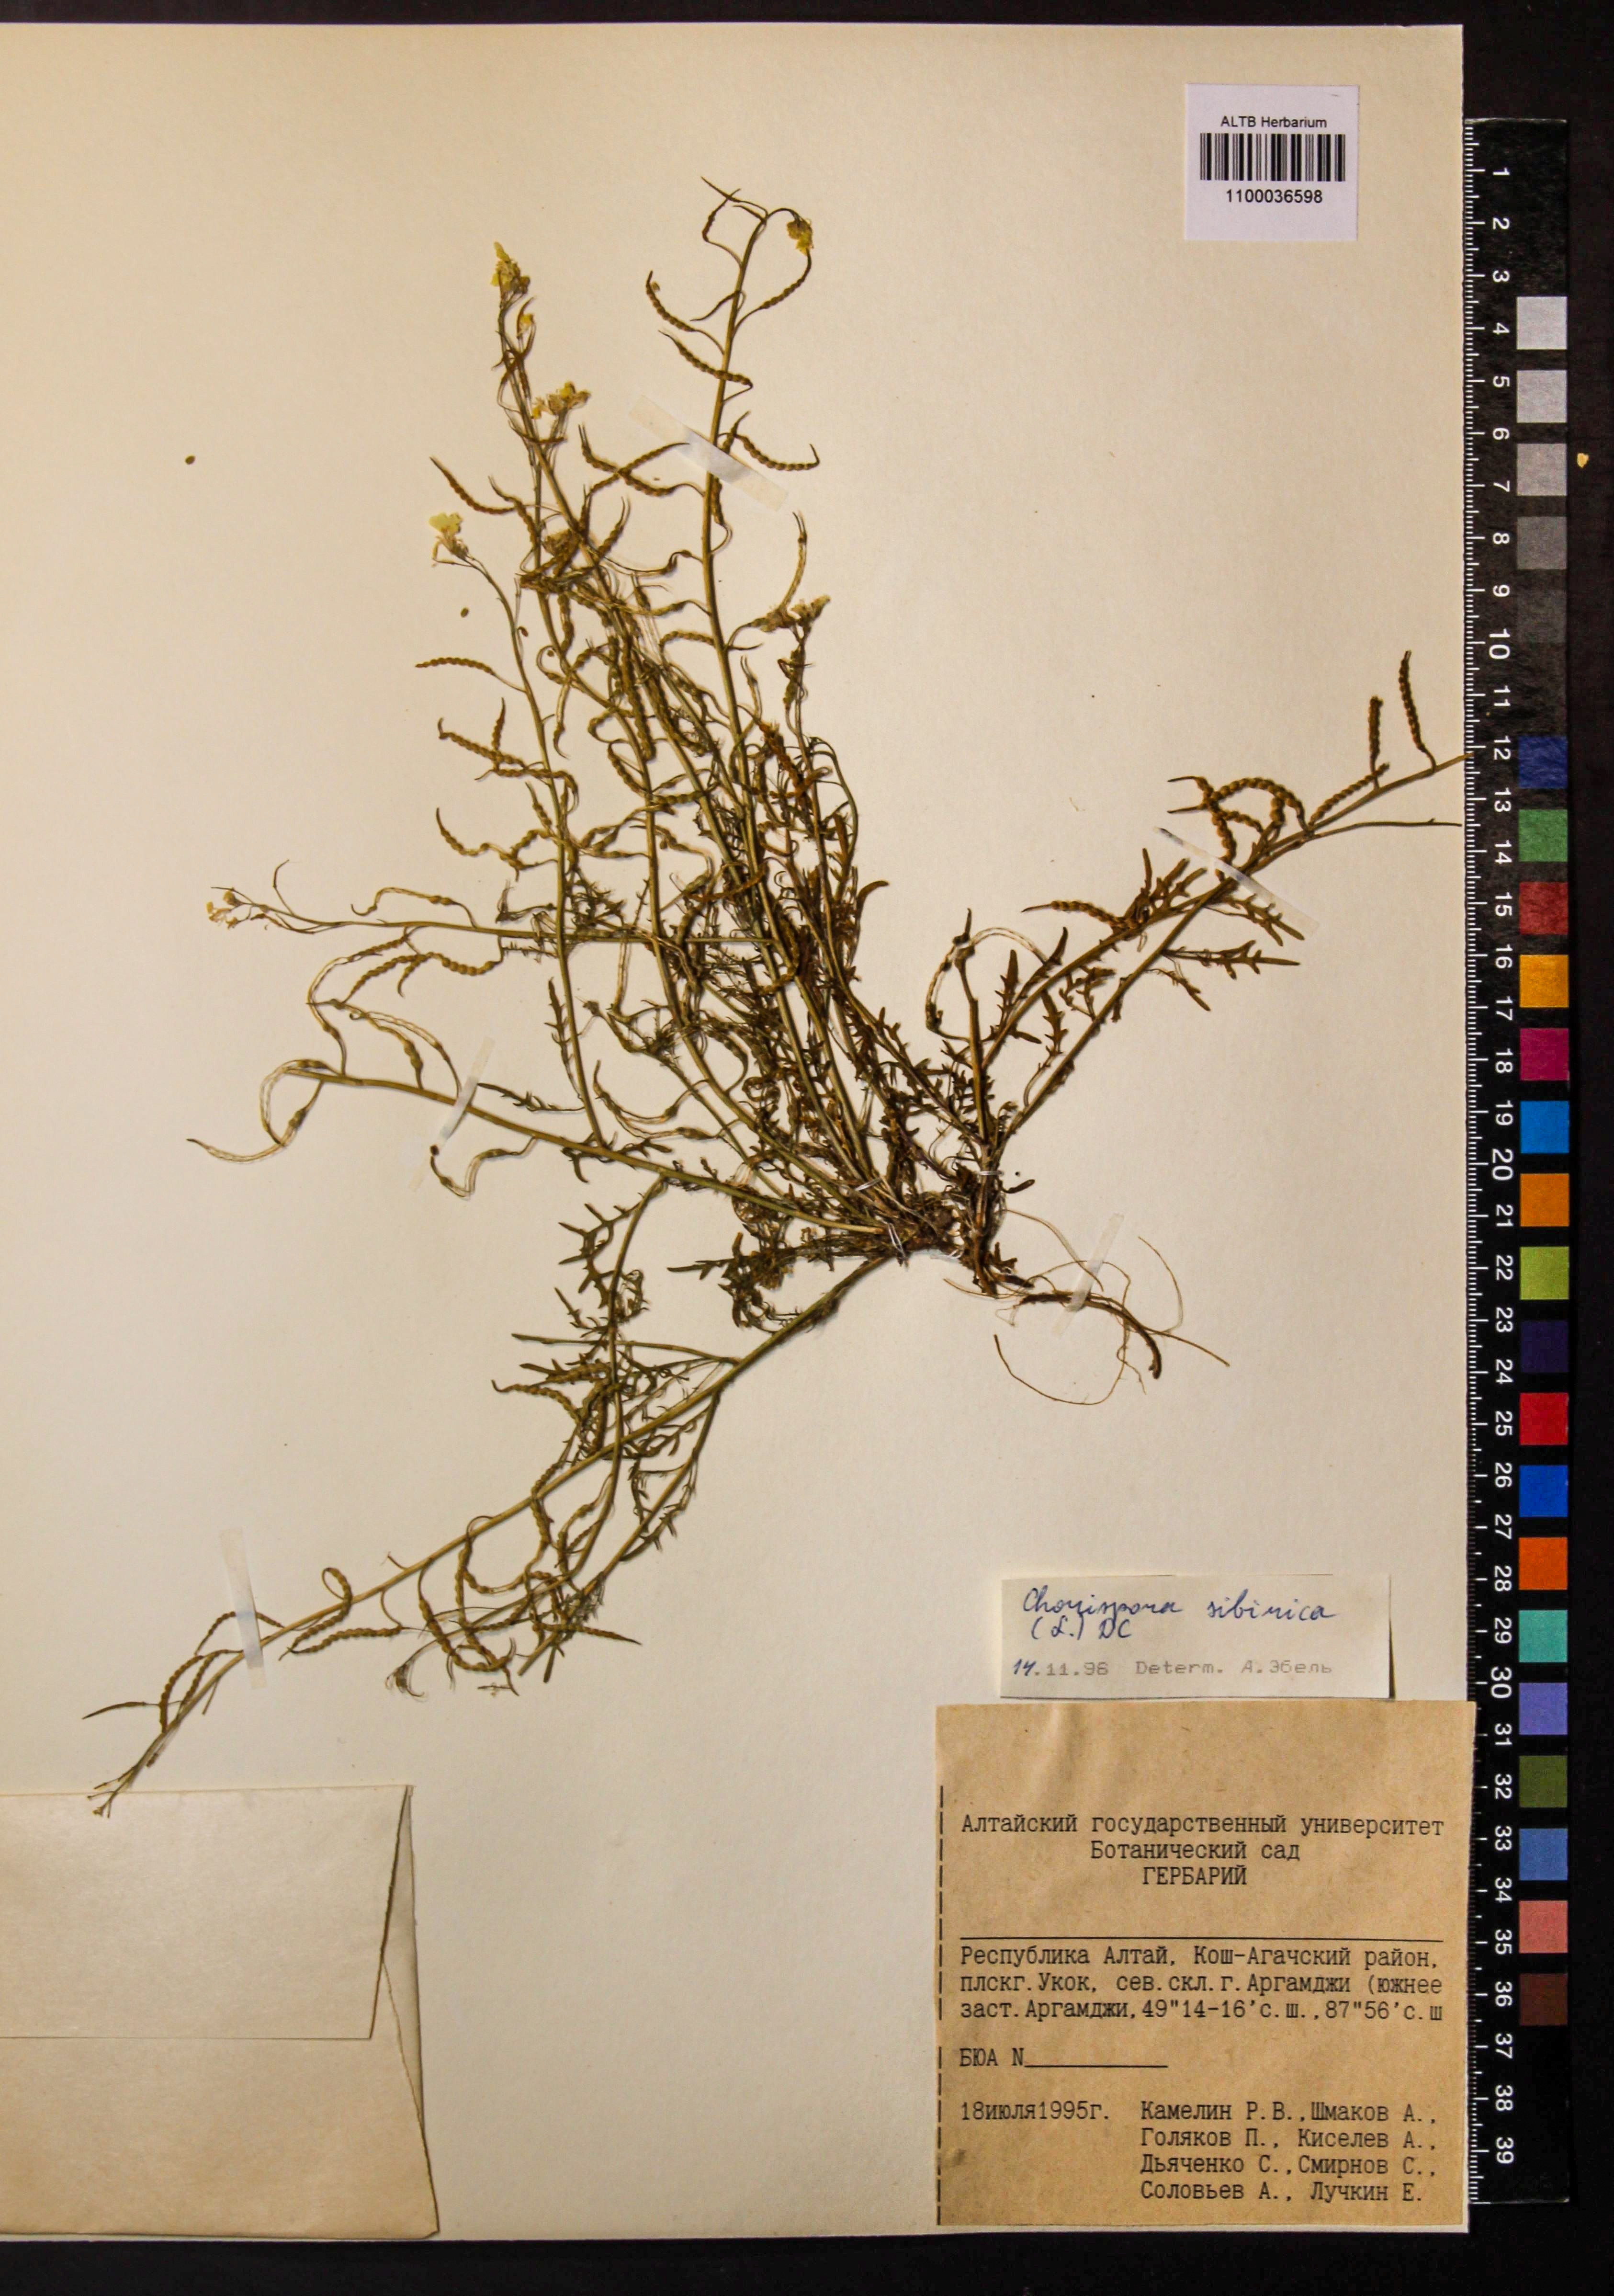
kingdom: Plantae
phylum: Tracheophyta
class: Magnoliopsida
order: Brassicales
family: Brassicaceae
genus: Chorispora
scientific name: Chorispora sibirica
